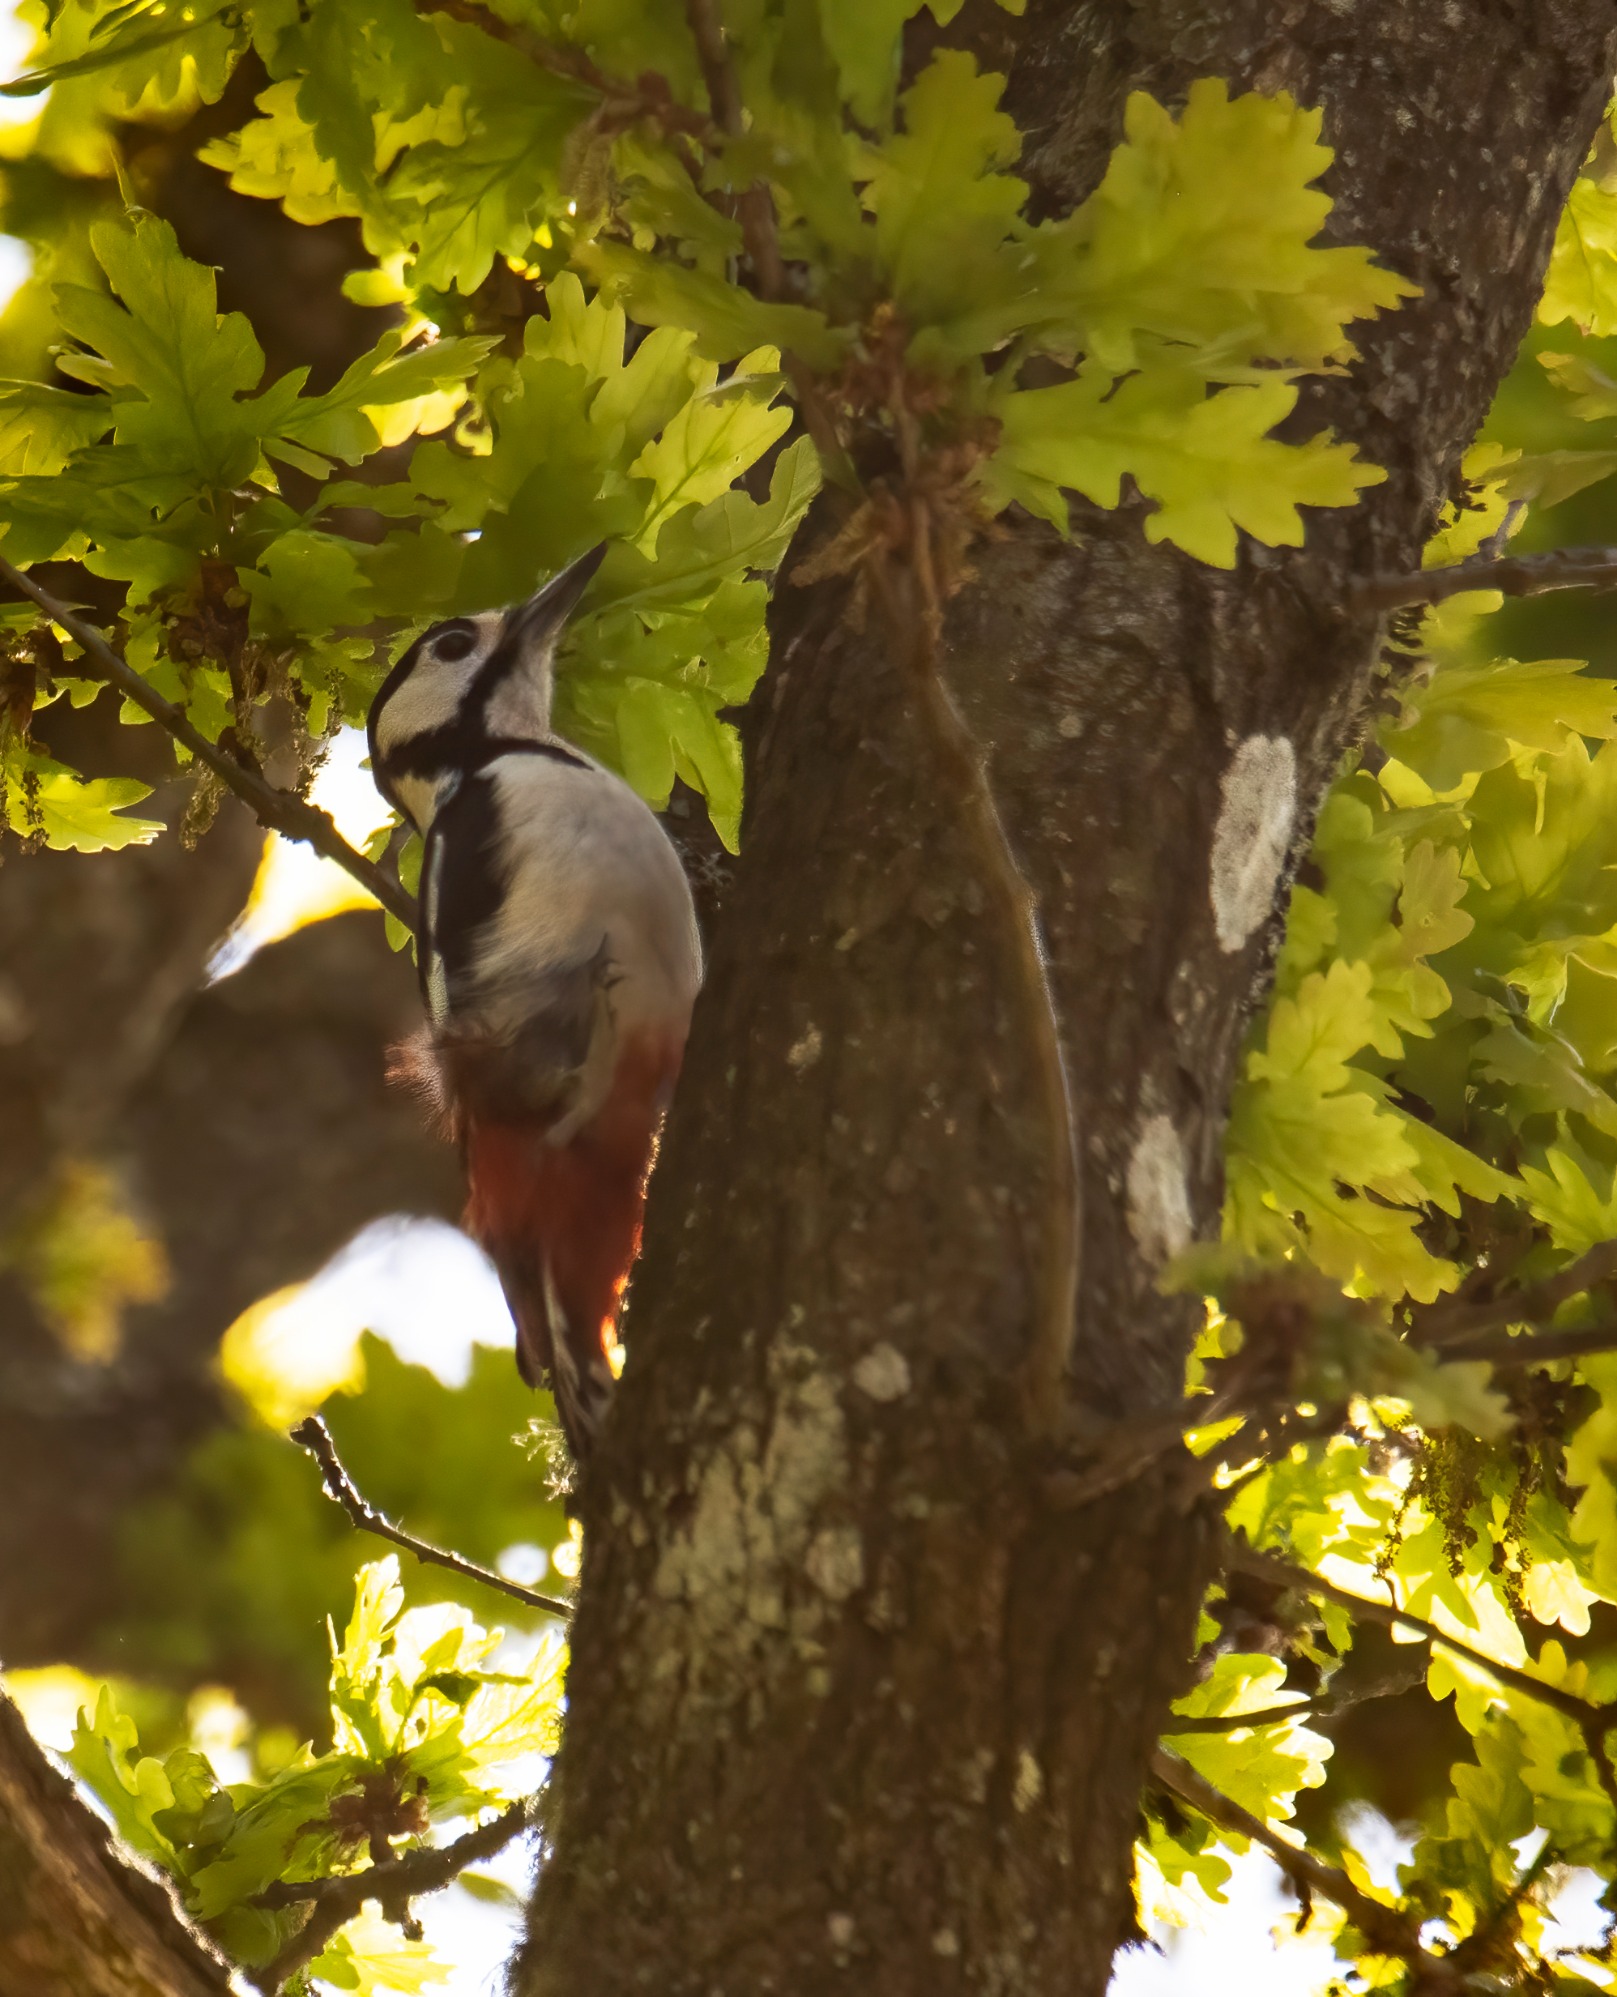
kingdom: Animalia
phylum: Chordata
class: Aves
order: Piciformes
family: Picidae
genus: Dendrocopos
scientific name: Dendrocopos major
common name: Stor flagspætte
